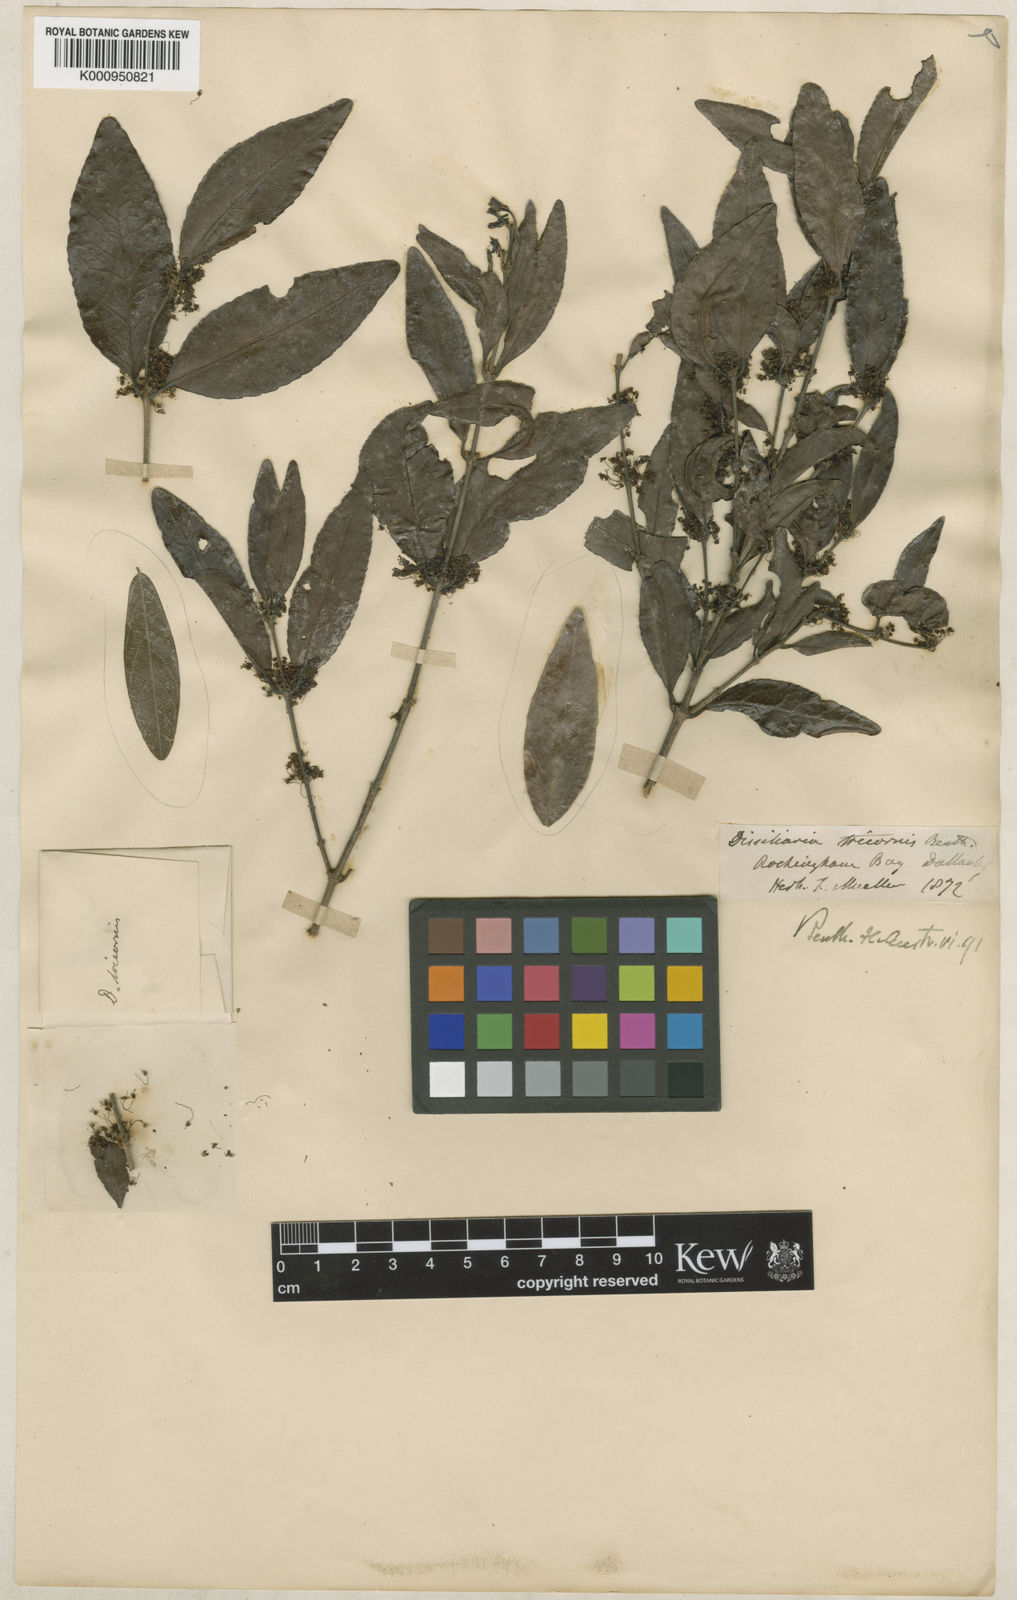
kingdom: Plantae
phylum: Tracheophyta
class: Magnoliopsida
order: Malpighiales
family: Picrodendraceae
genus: Choriceras
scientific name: Choriceras tricorne
